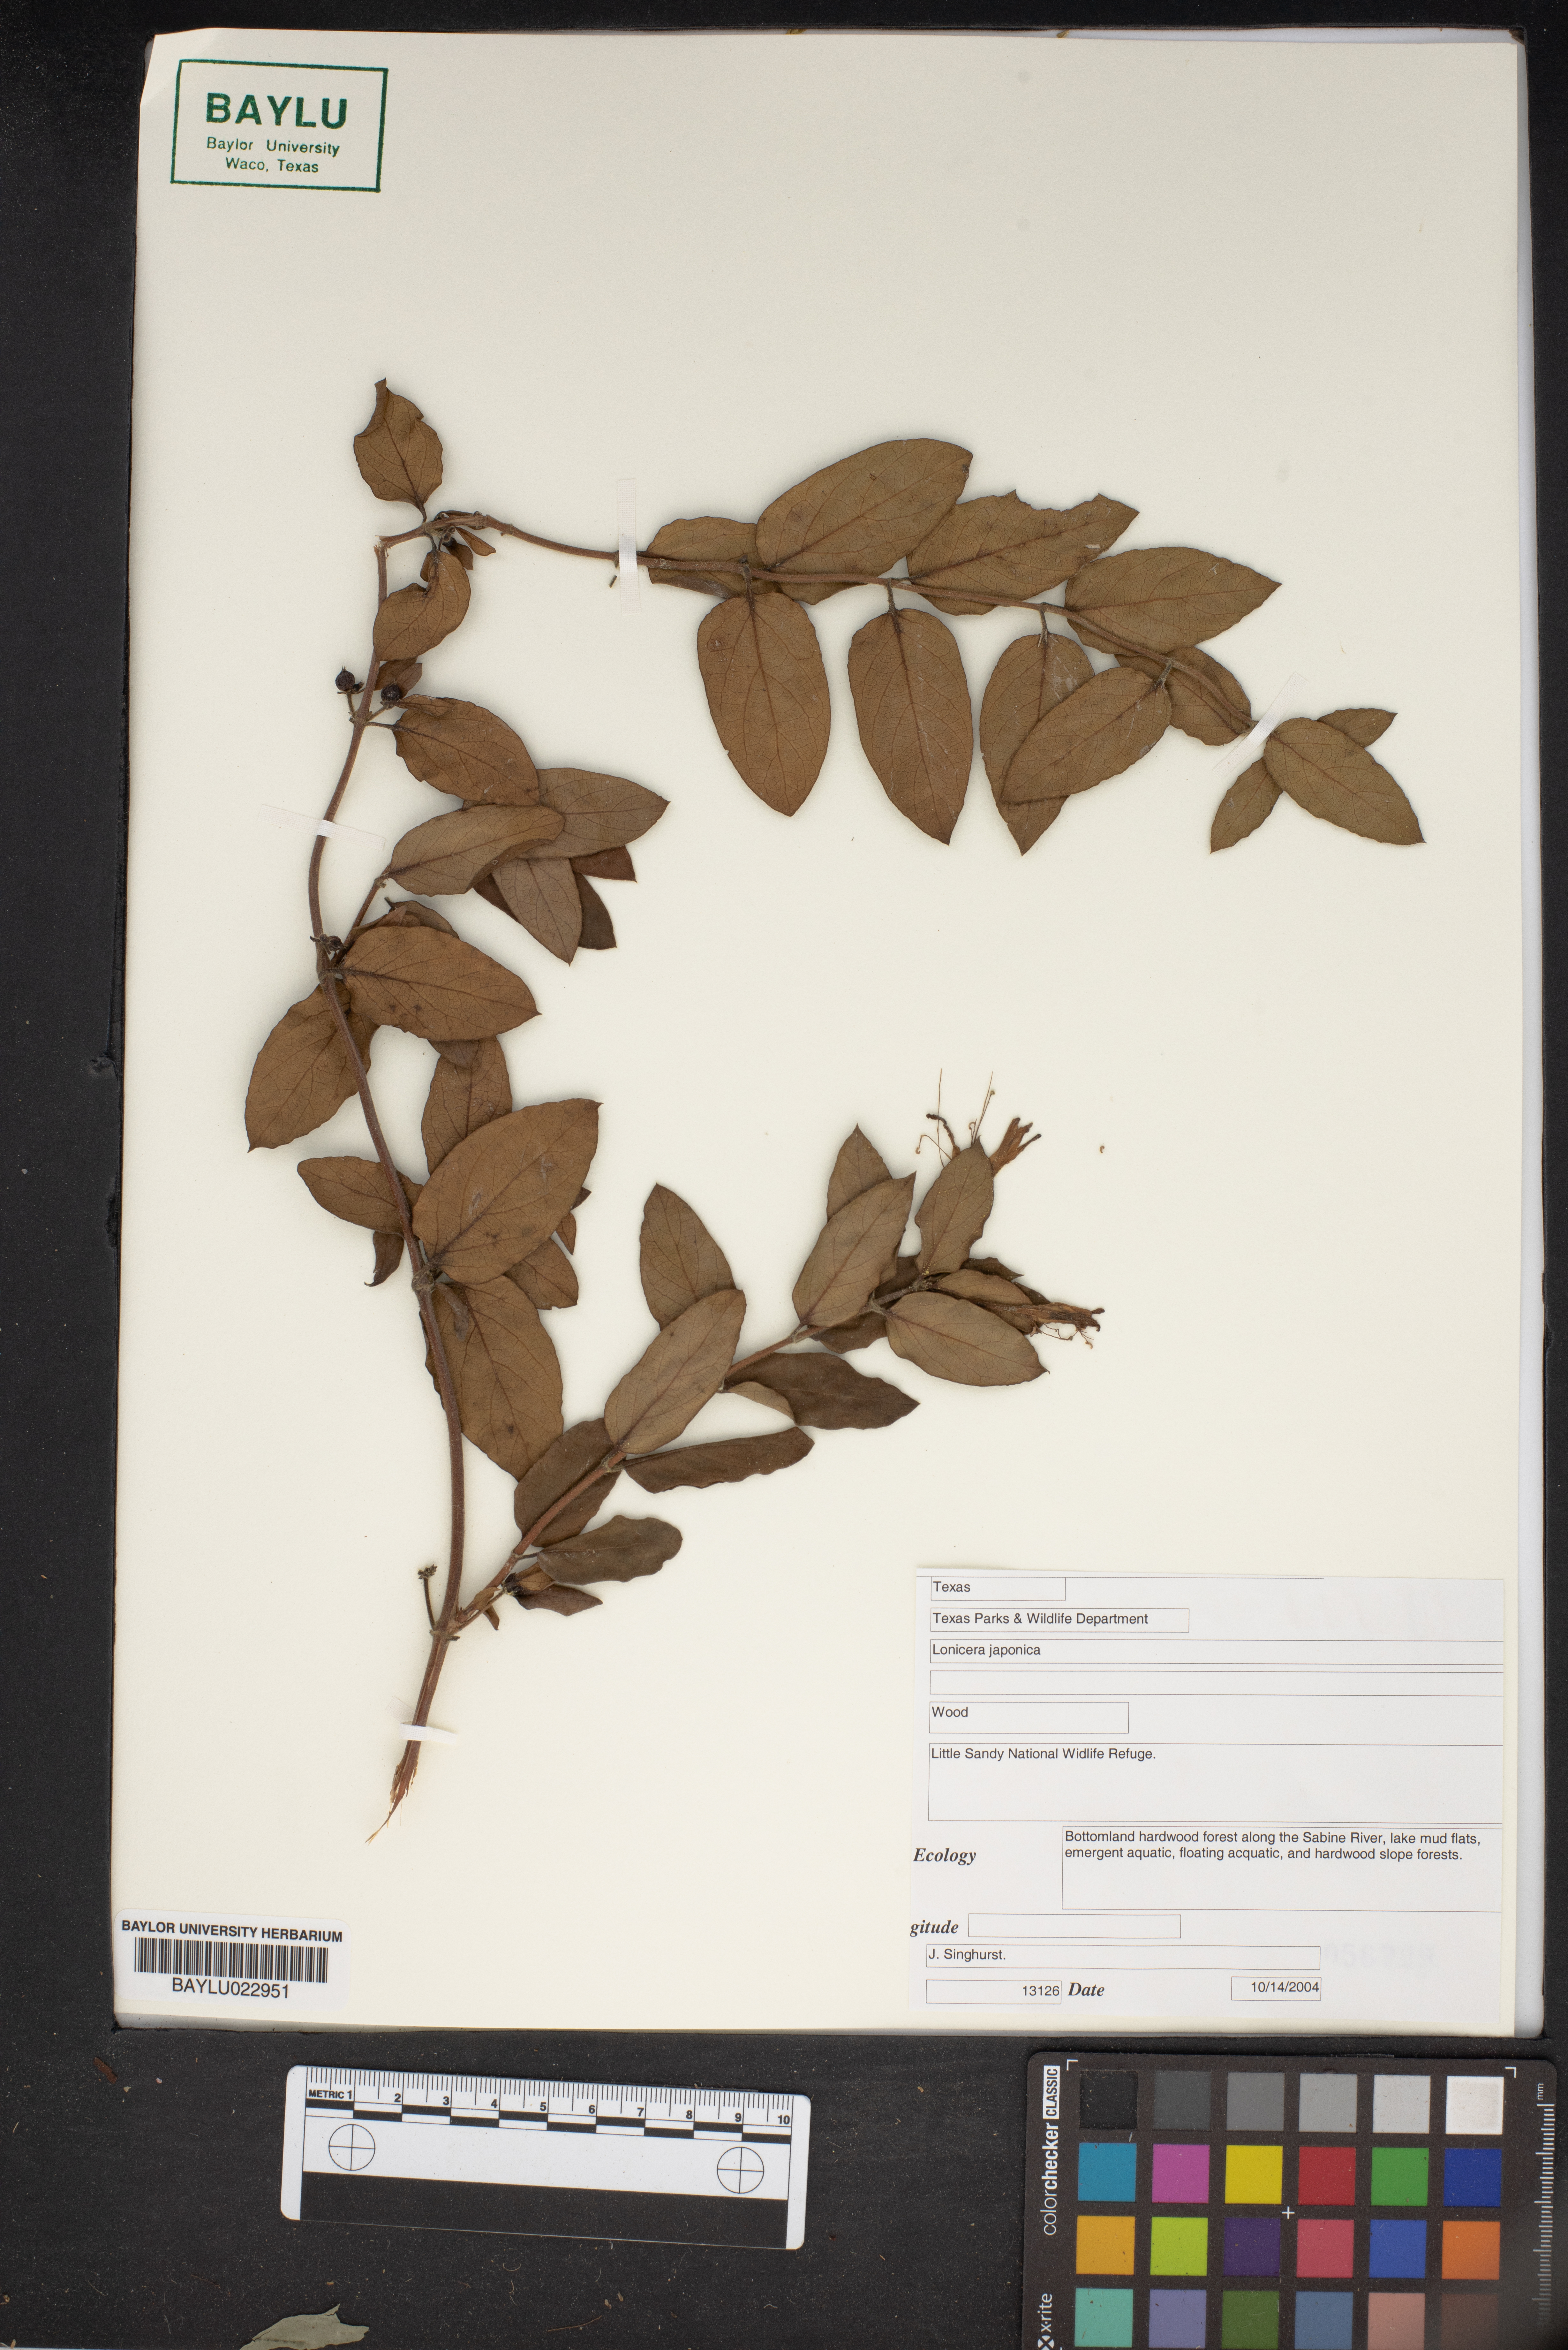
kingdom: Plantae
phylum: Tracheophyta
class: Magnoliopsida
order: Dipsacales
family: Caprifoliaceae
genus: Lonicera
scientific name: Lonicera japonica
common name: Japanese honeysuckle
